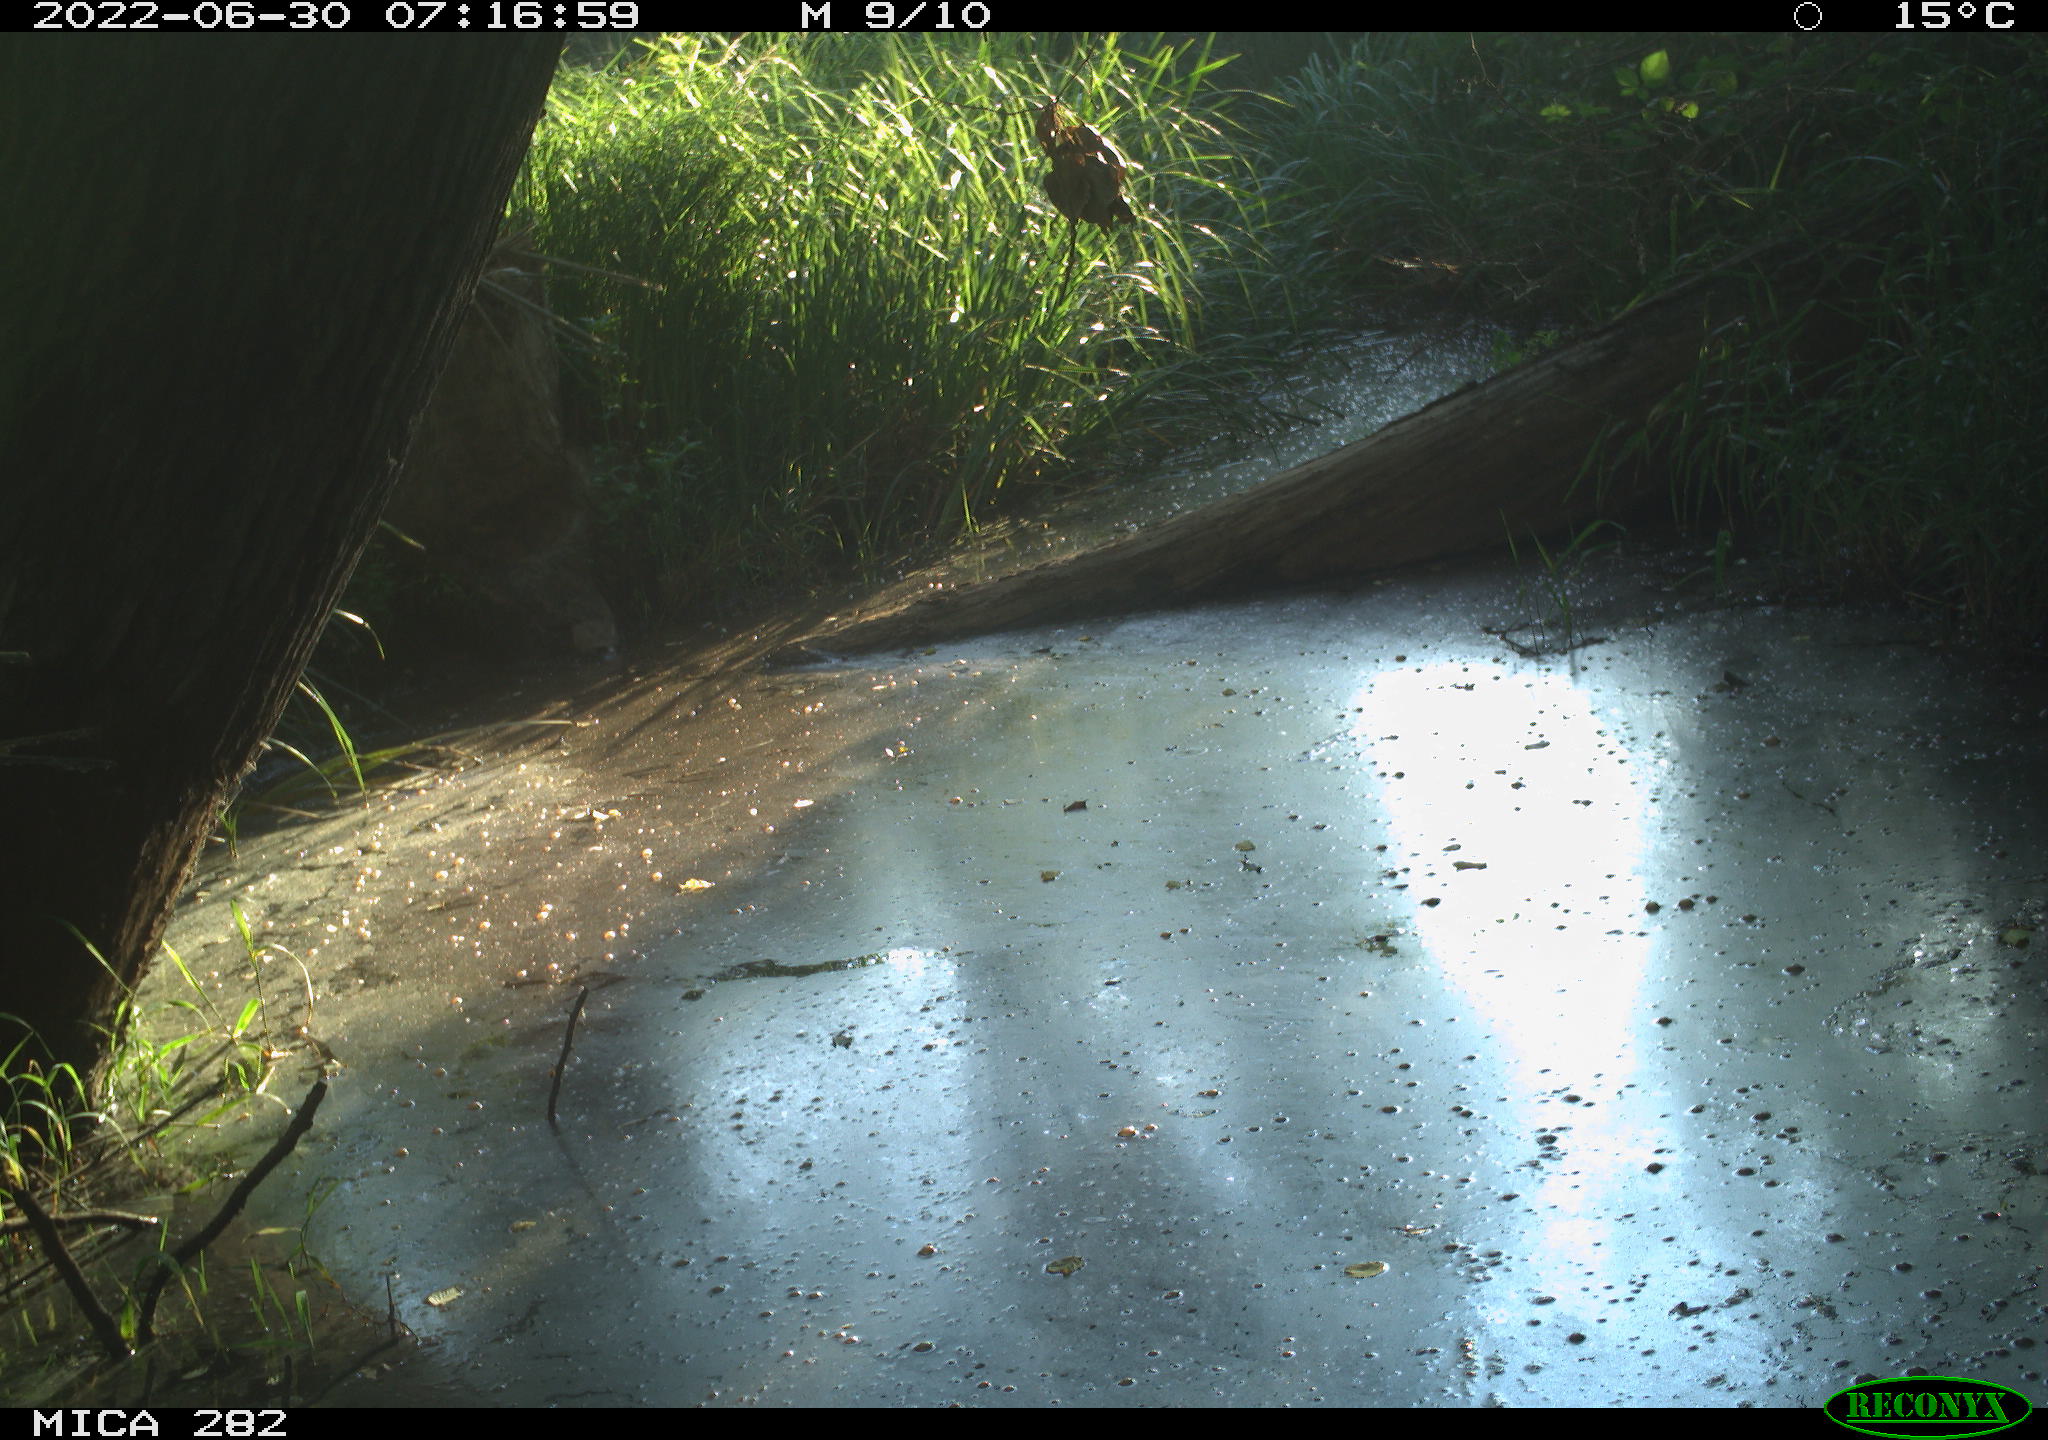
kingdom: Animalia
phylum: Chordata
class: Aves
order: Passeriformes
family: Paridae
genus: Parus
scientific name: Parus major
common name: Great tit
